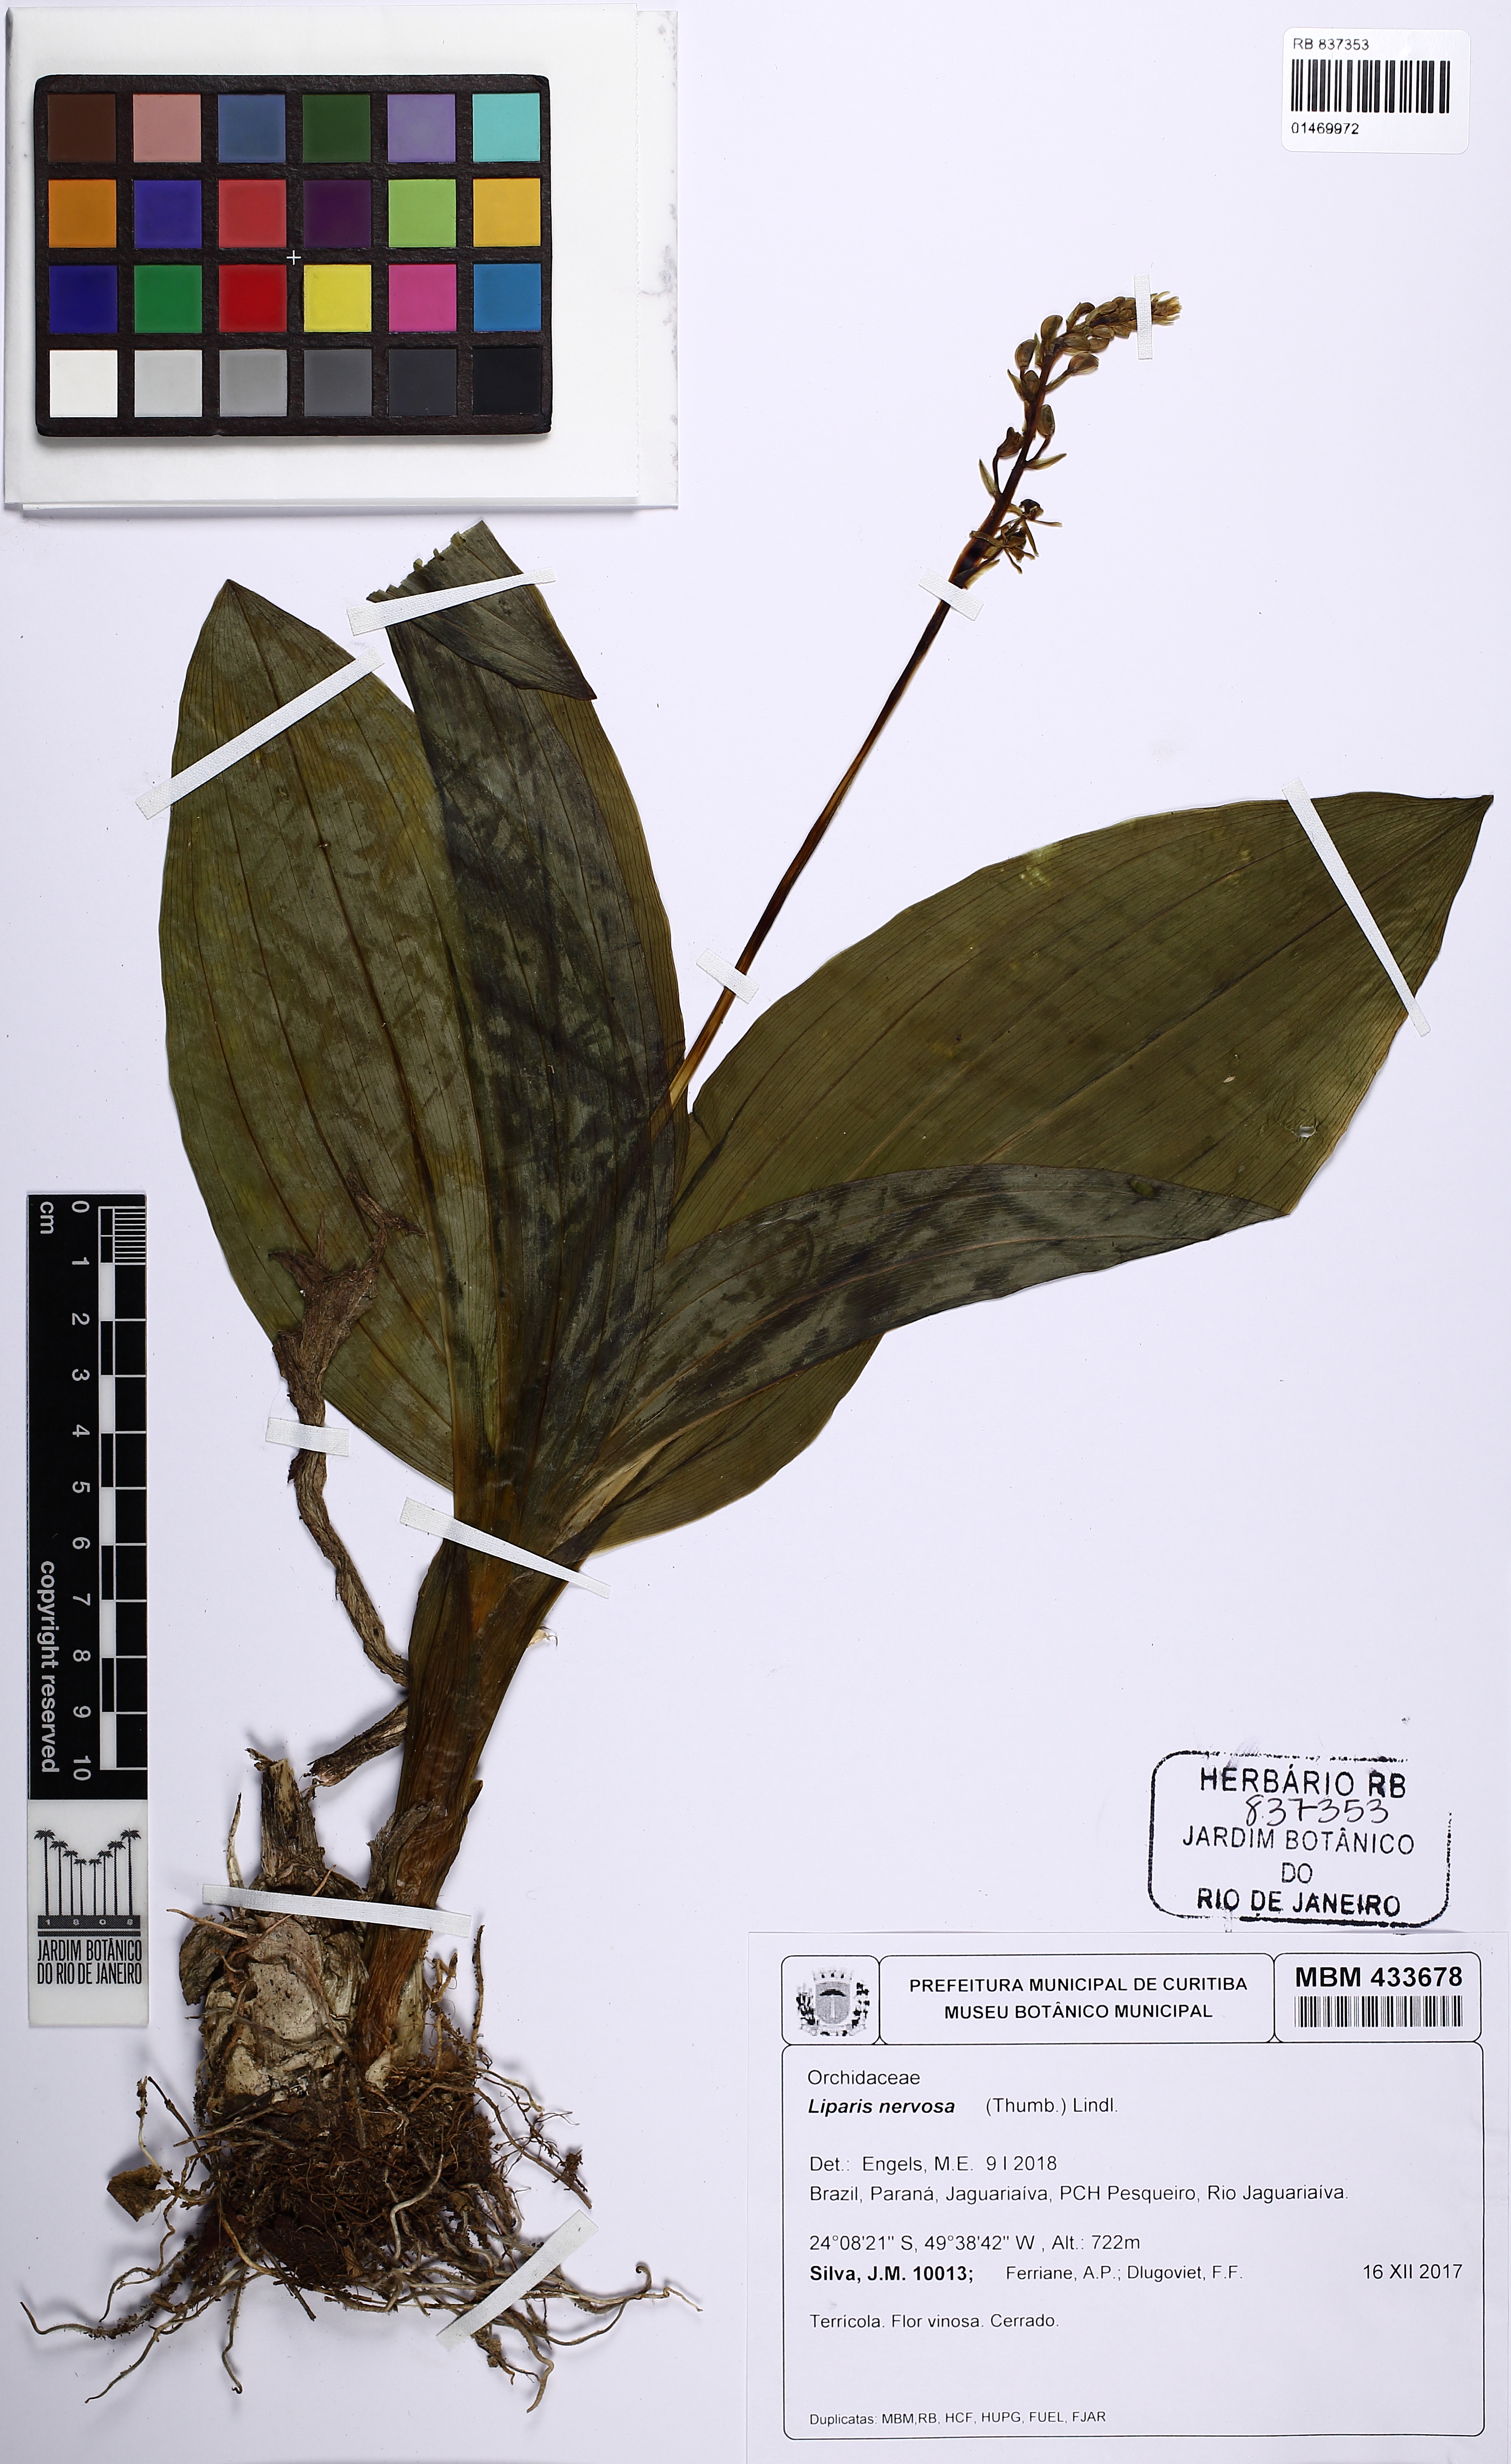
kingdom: Plantae
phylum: Tracheophyta
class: Liliopsida
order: Asparagales
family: Orchidaceae
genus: Liparis
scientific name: Liparis nervosa
